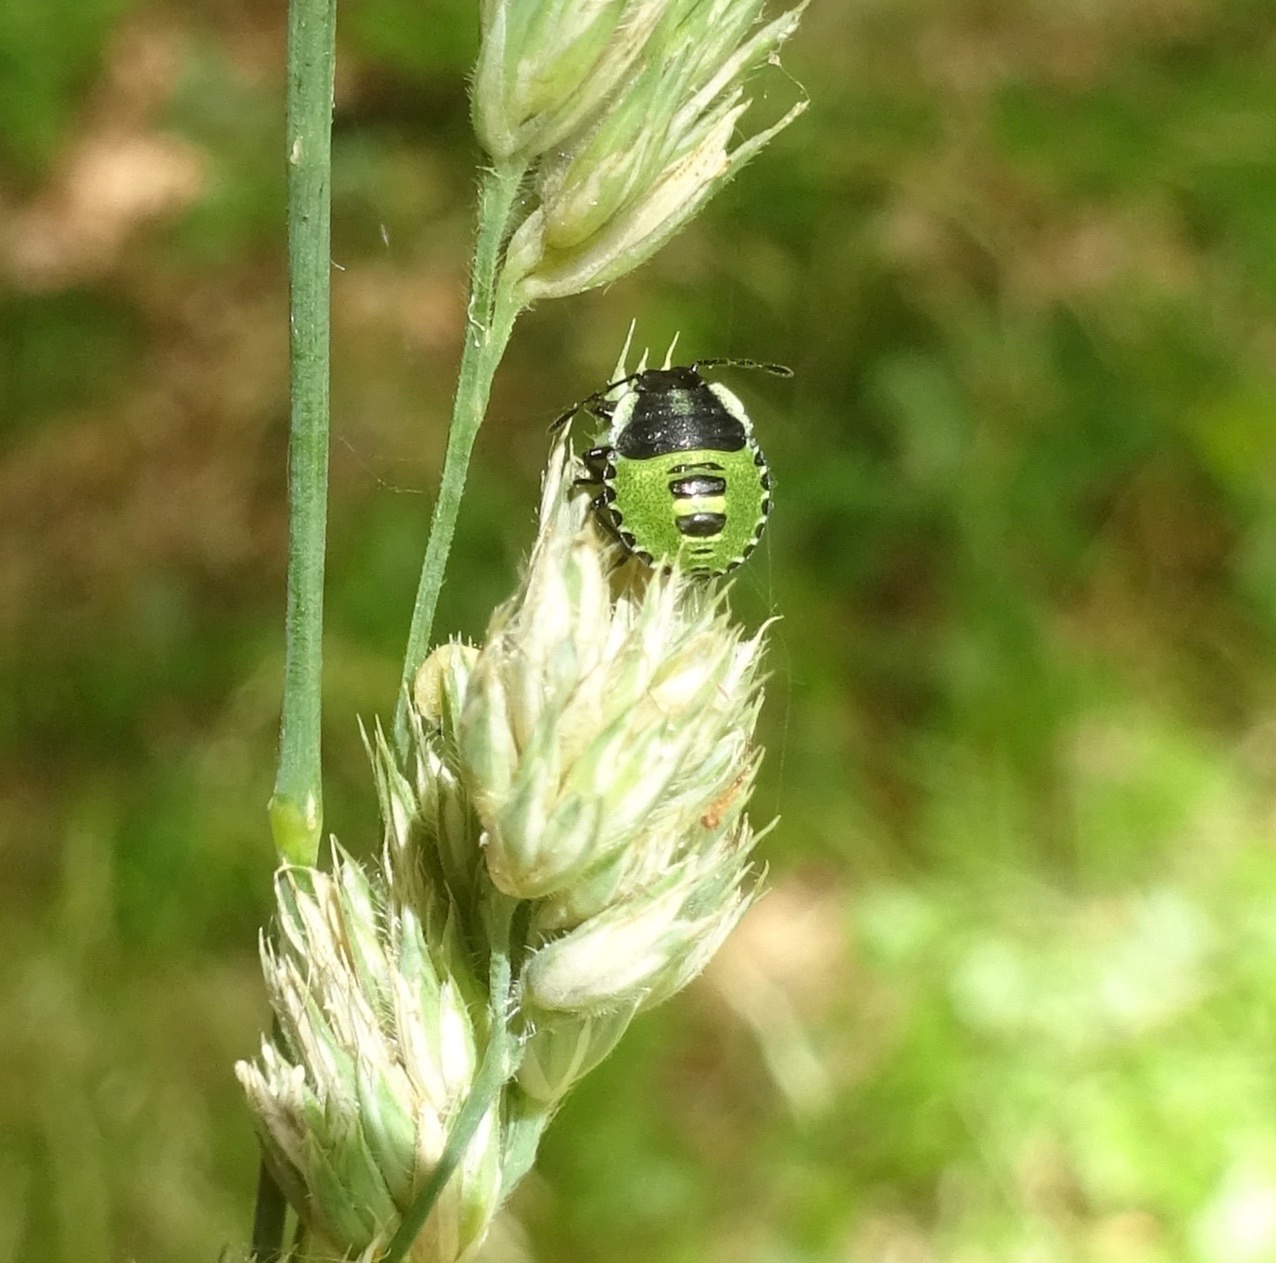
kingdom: Animalia
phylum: Arthropoda
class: Insecta
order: Hemiptera
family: Pentatomidae
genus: Palomena
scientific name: Palomena prasina
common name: Grøn bredtæge
